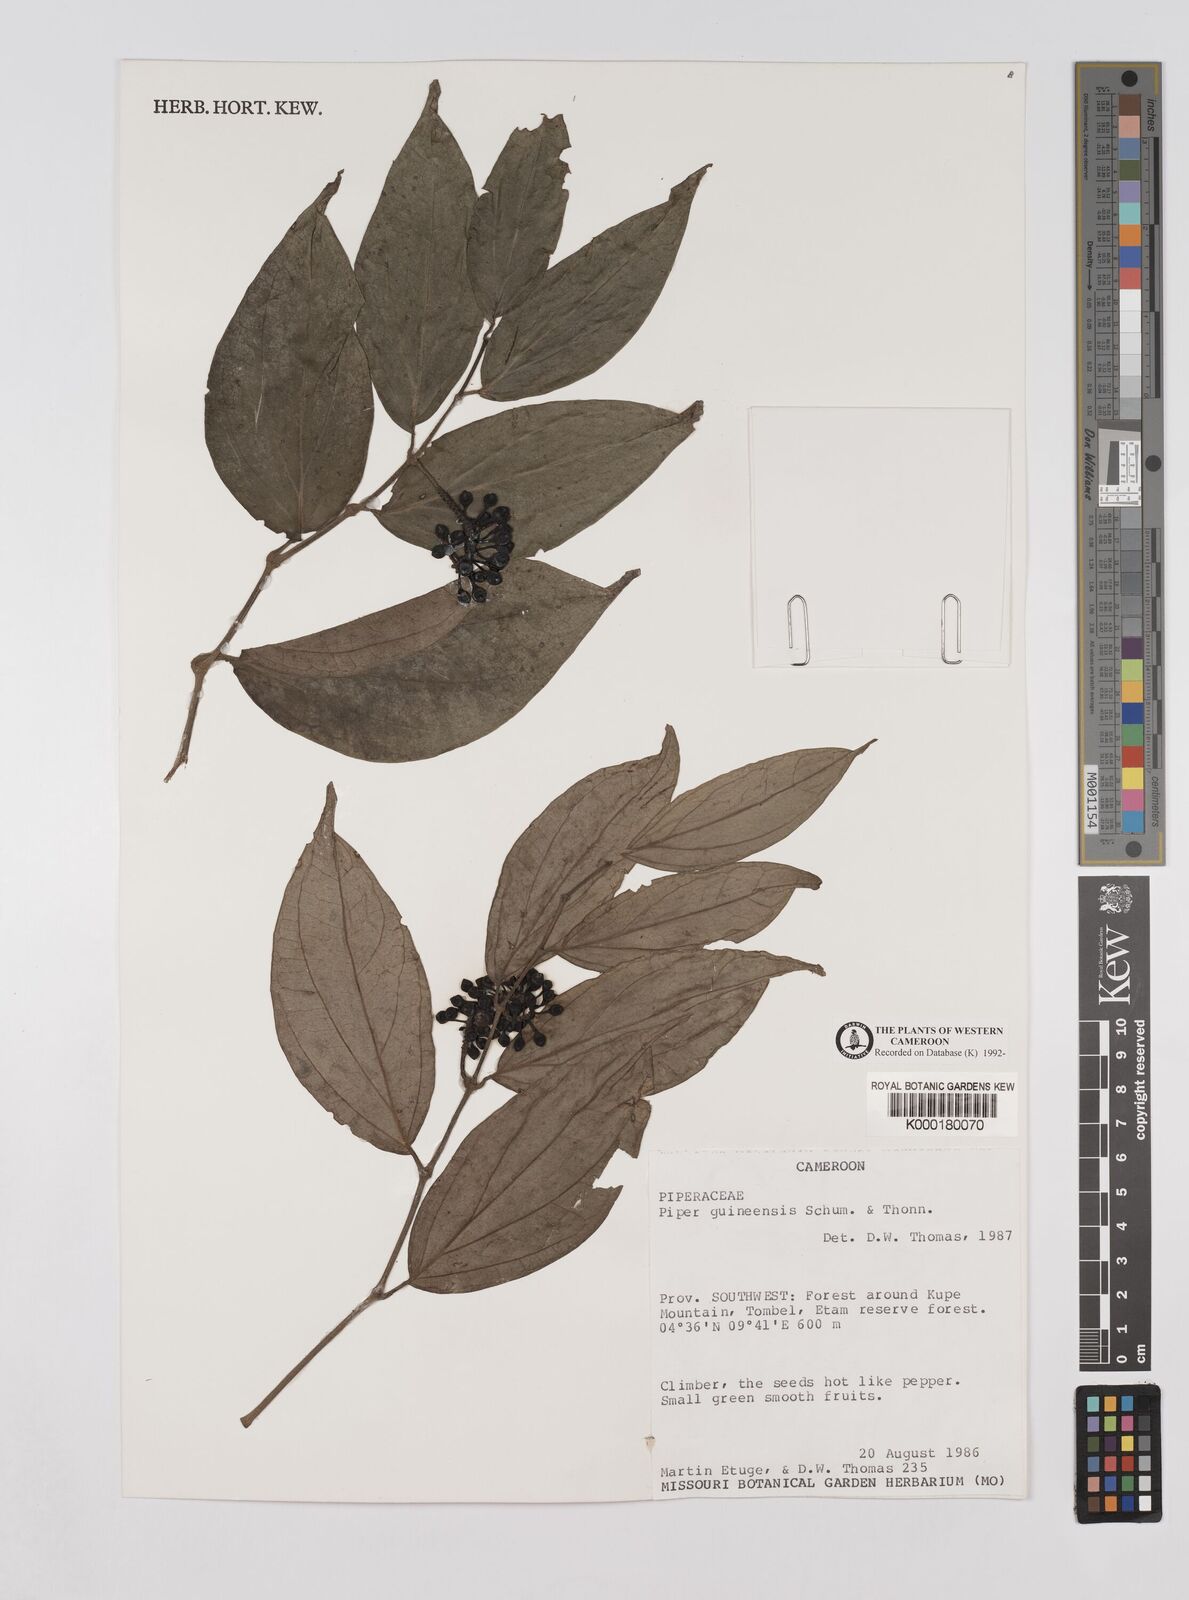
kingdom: Plantae
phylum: Tracheophyta
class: Magnoliopsida
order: Piperales
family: Piperaceae
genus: Piper
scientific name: Piper guineense
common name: Benin pepper
